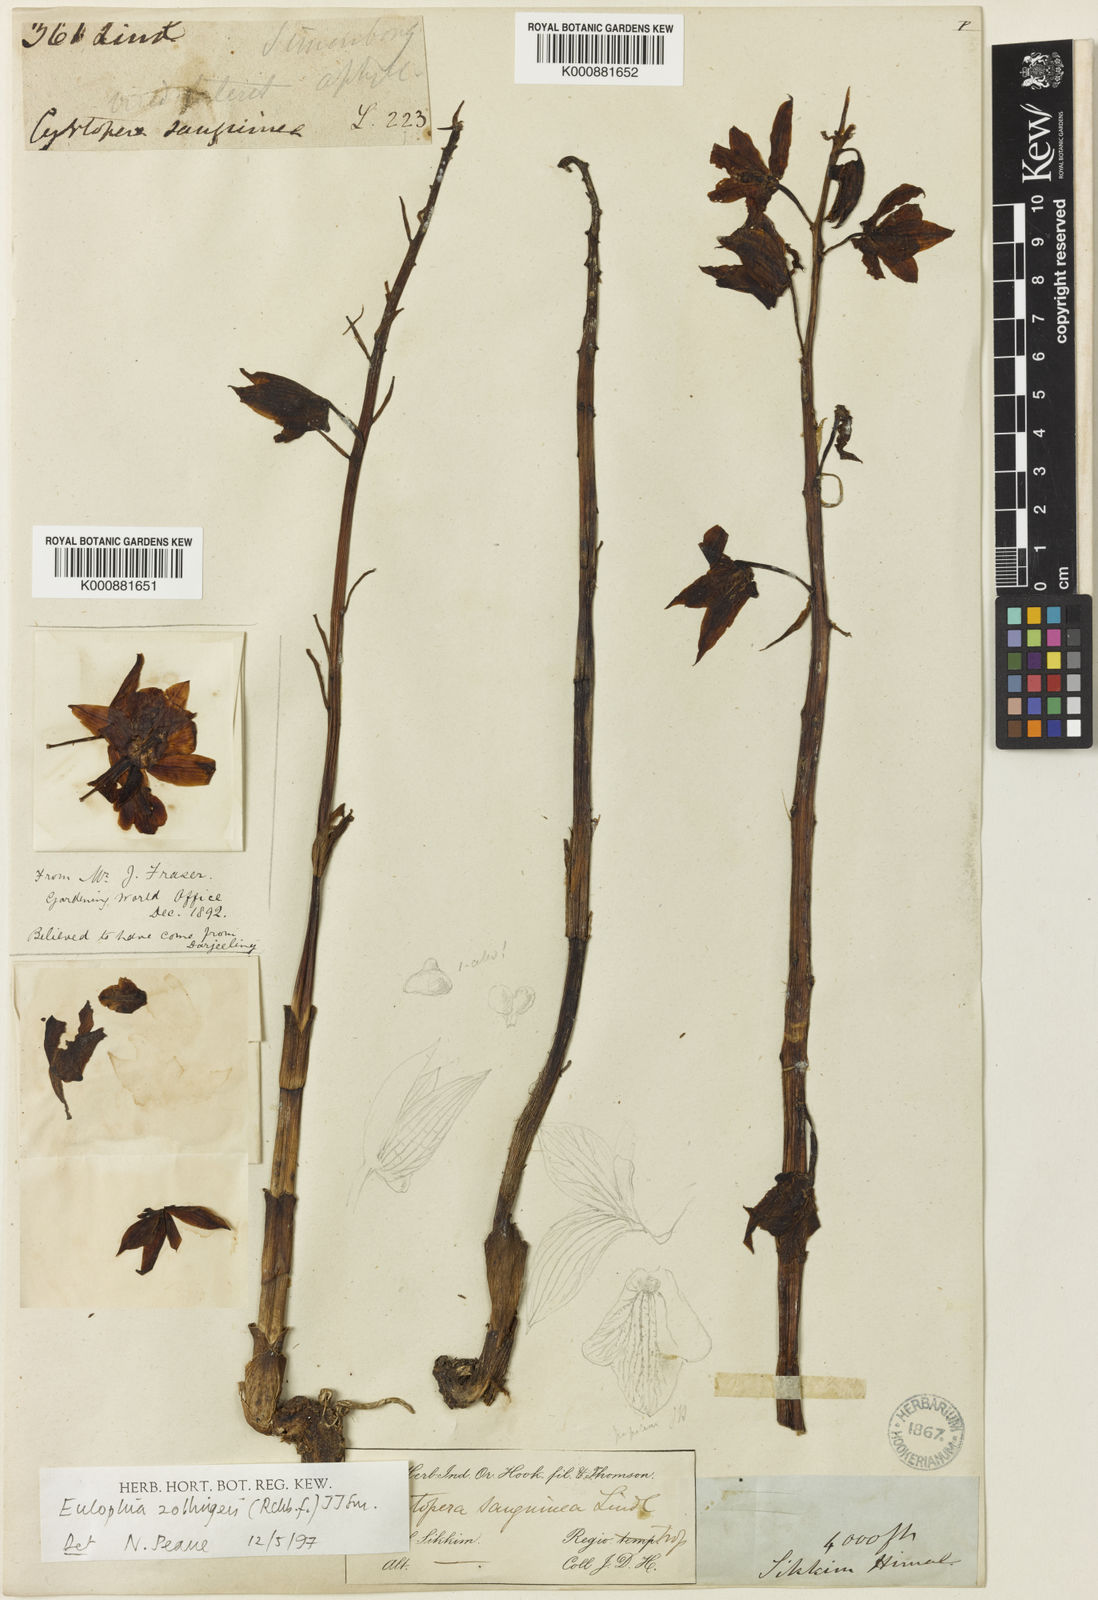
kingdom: Plantae
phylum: Tracheophyta
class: Liliopsida
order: Asparagales
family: Orchidaceae
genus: Eulophia
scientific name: Eulophia zollingeri
